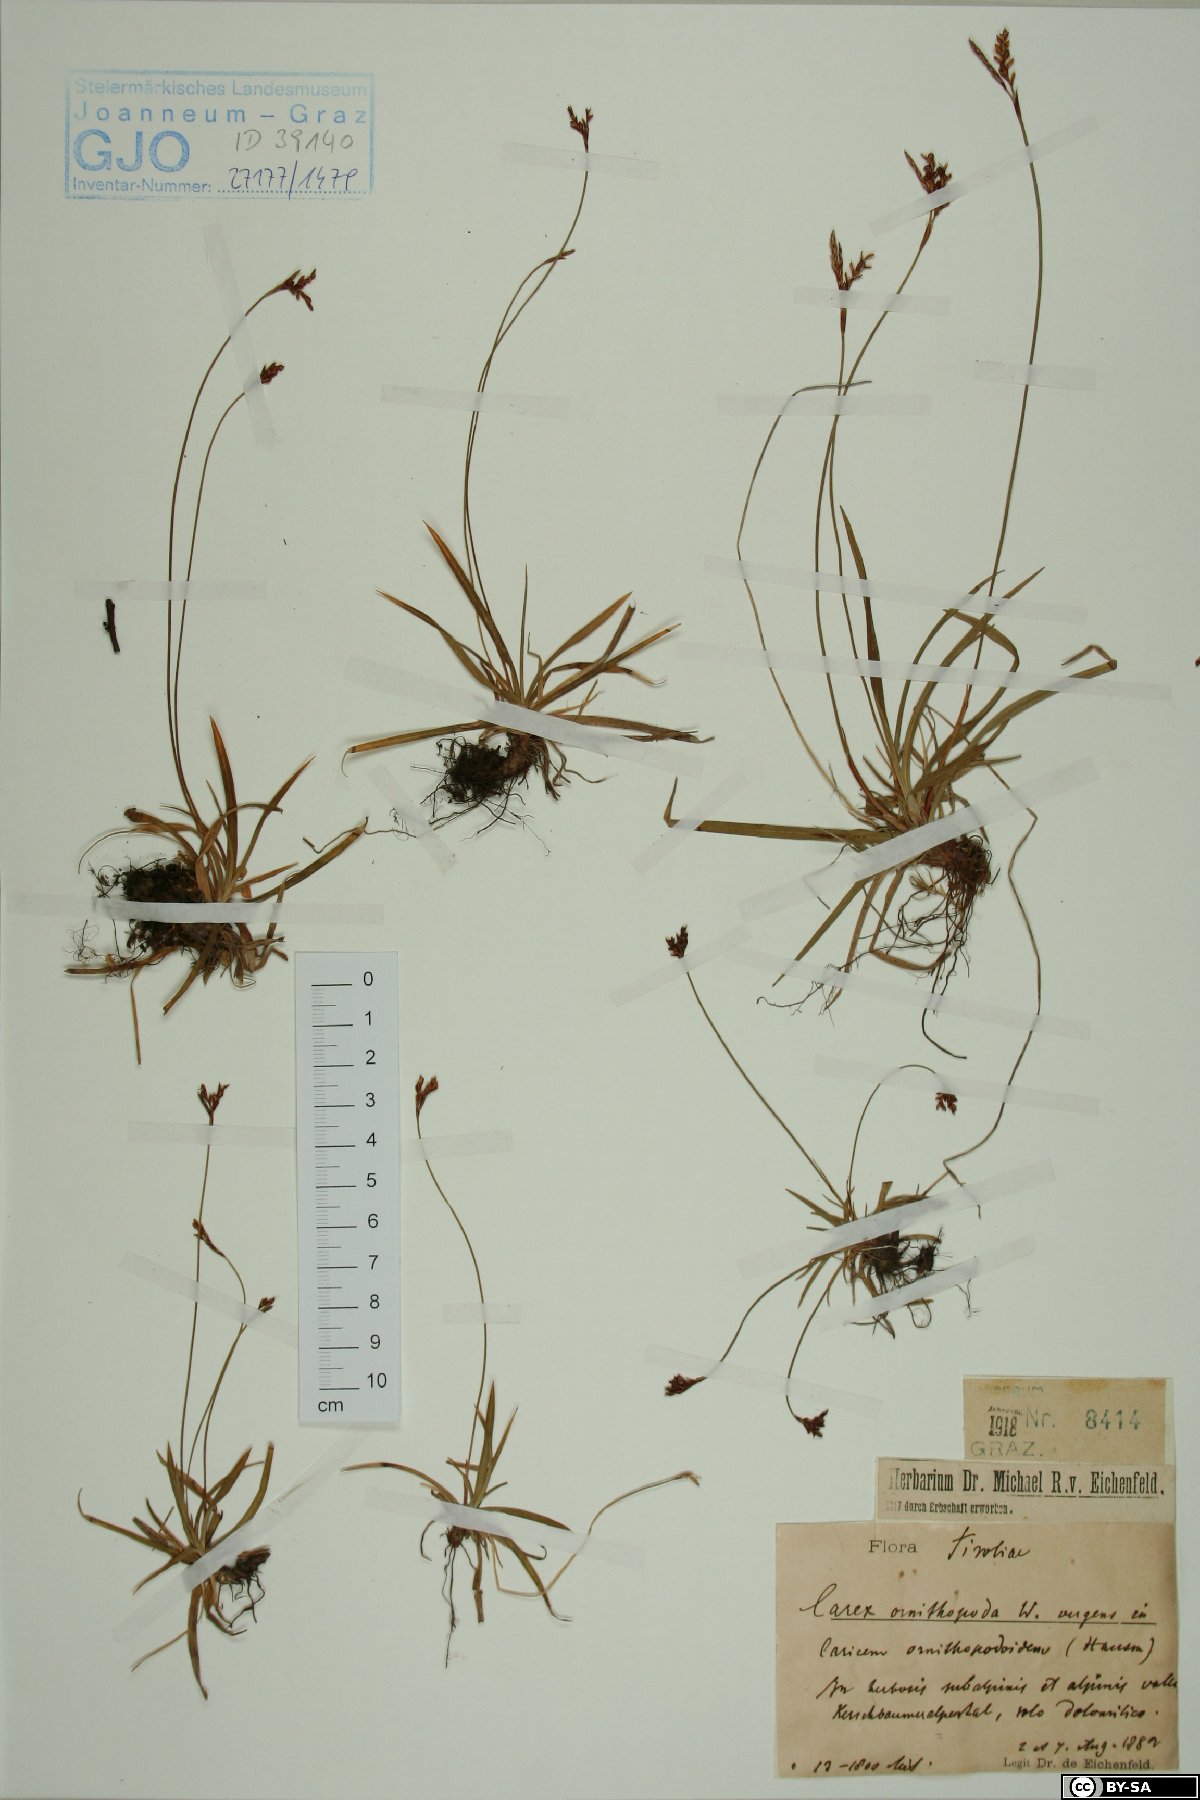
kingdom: Plantae
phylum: Tracheophyta
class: Liliopsida
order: Poales
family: Cyperaceae
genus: Carex
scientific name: Carex ornithopoda
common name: Bird's-foot sedge
